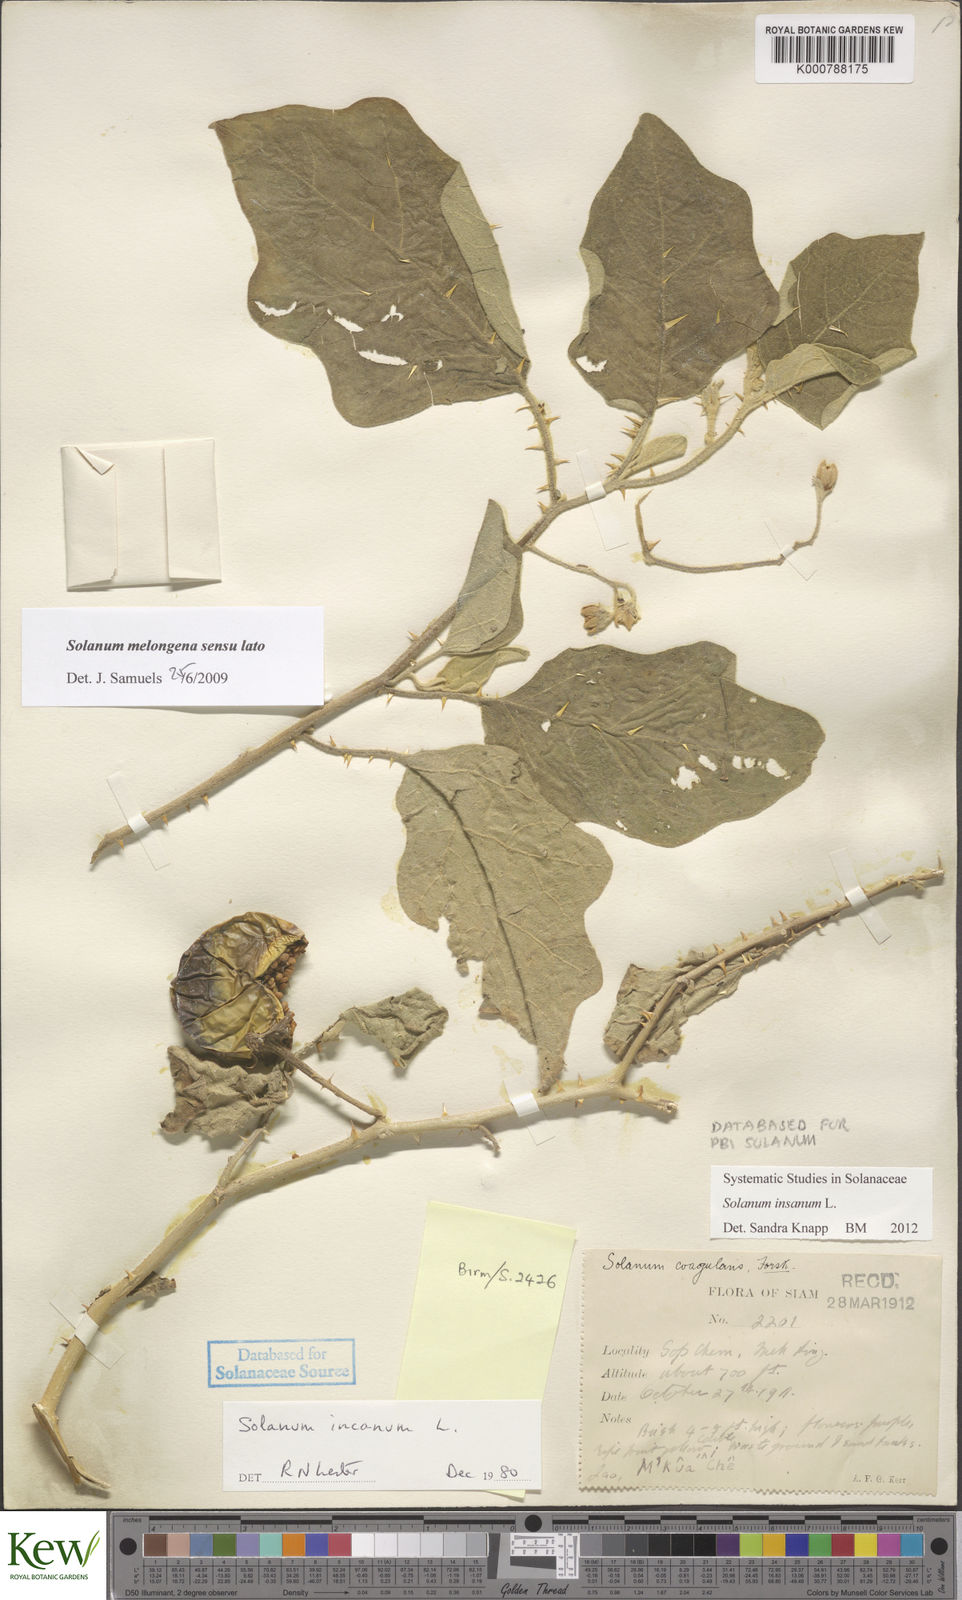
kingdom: Plantae
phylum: Tracheophyta
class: Magnoliopsida
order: Solanales
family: Solanaceae
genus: Solanum
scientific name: Solanum melongena
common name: Eggplant
